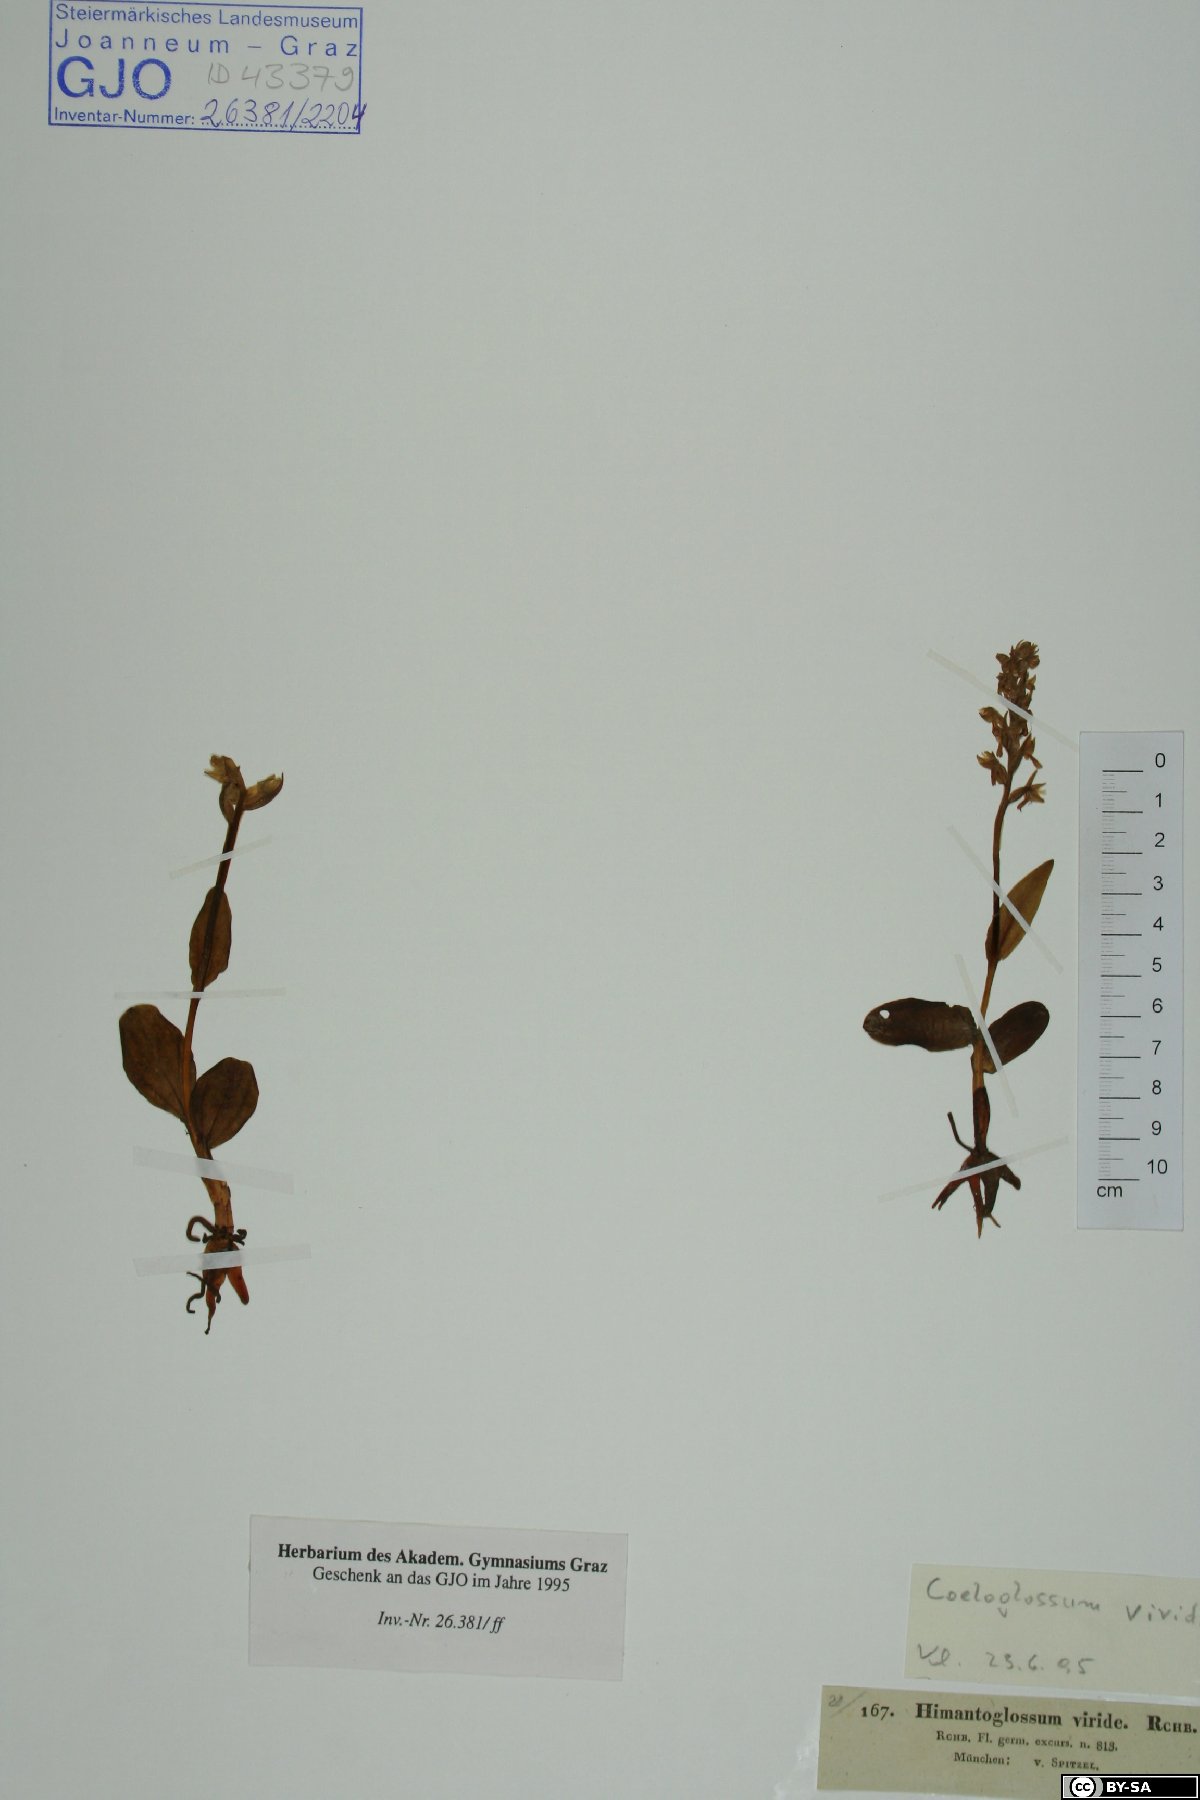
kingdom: Plantae
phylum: Tracheophyta
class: Liliopsida
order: Asparagales
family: Orchidaceae
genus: Dactylorhiza
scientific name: Dactylorhiza viridis
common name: Longbract frog orchid
